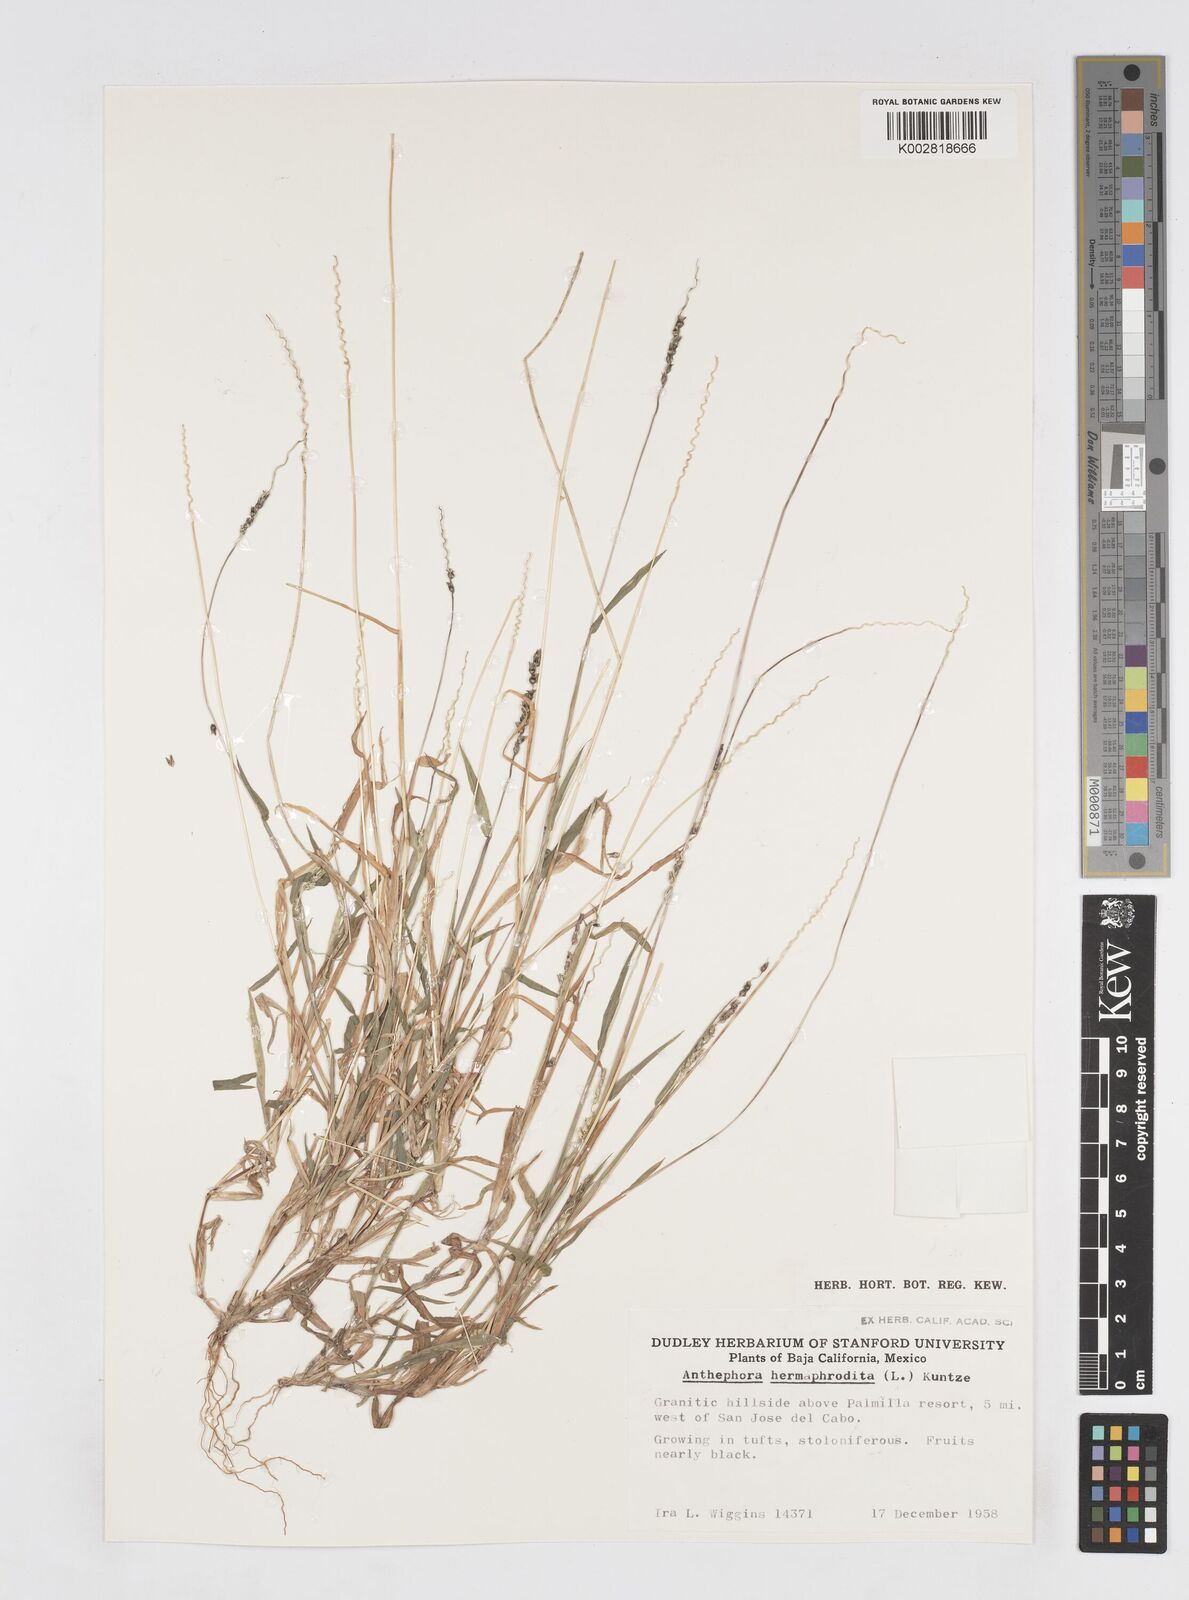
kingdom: Plantae
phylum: Tracheophyta
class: Liliopsida
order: Poales
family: Poaceae
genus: Anthephora
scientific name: Anthephora hermaphrodita
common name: Oldfield grass
